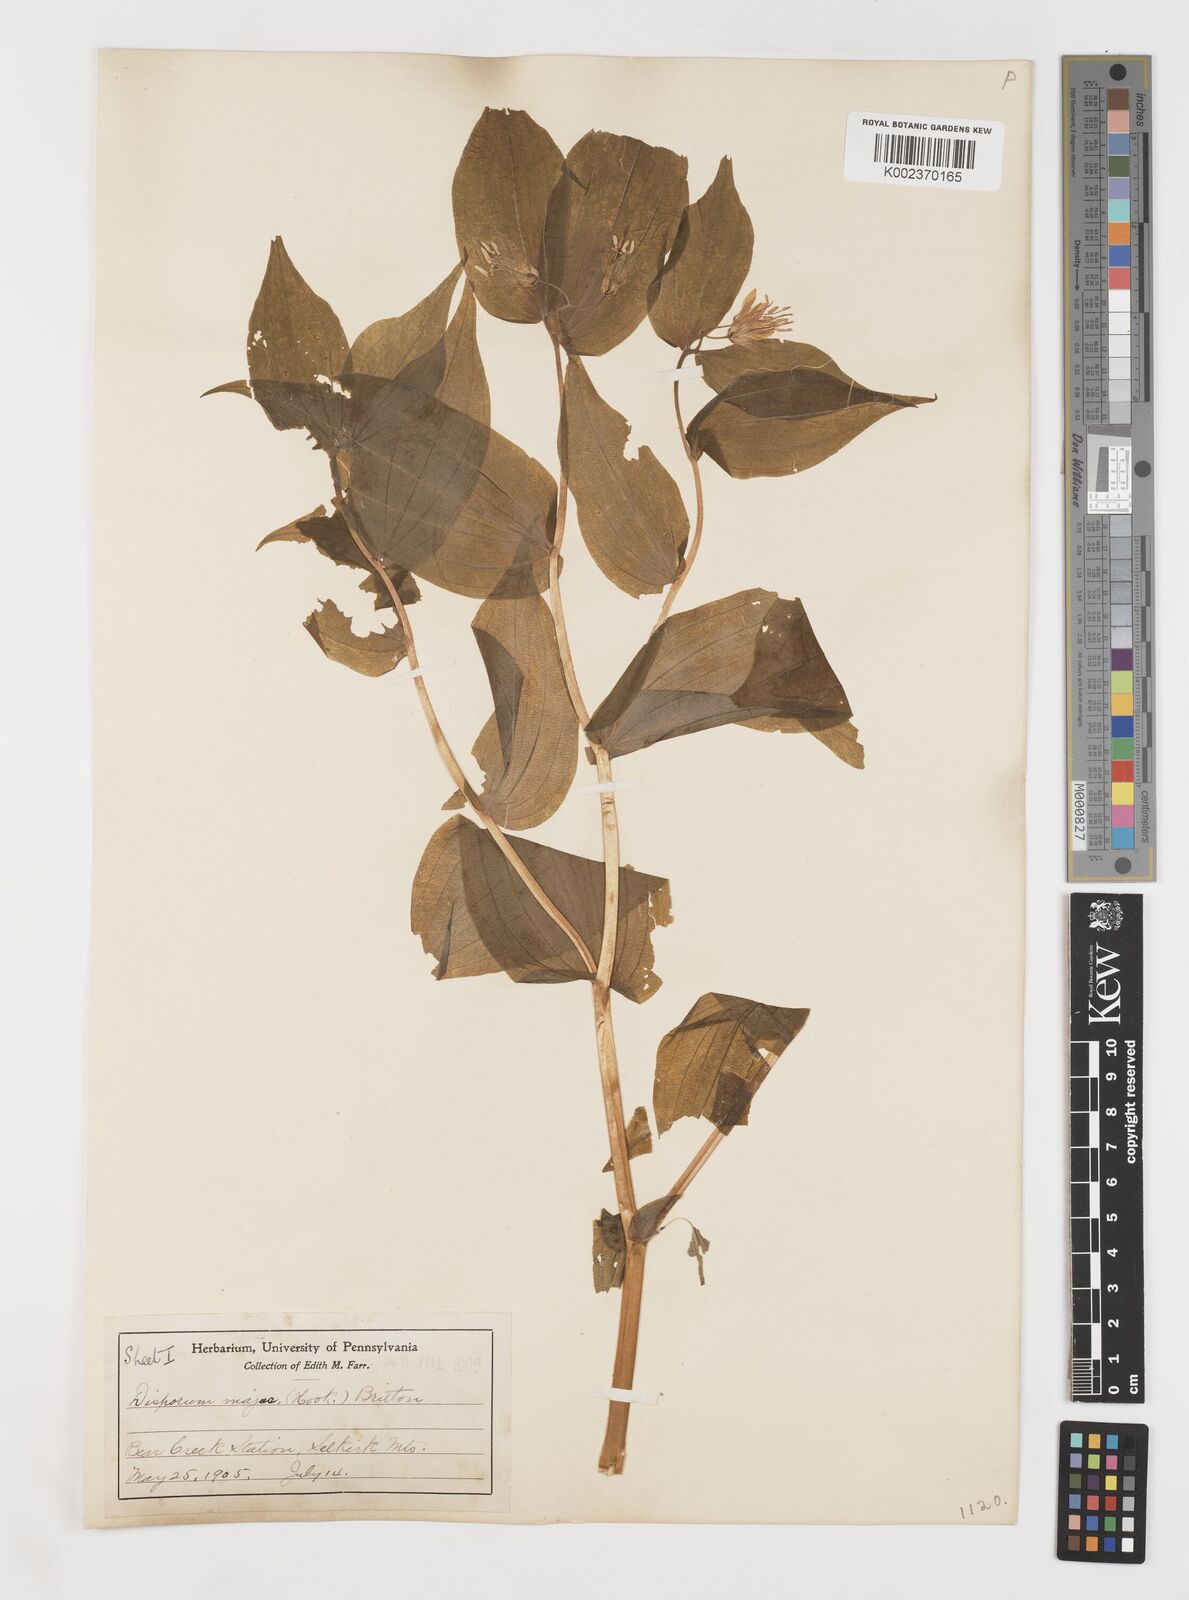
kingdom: Plantae
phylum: Tracheophyta
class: Liliopsida
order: Liliales
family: Liliaceae
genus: Prosartes
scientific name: Prosartes trachycarpa
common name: Rough-fruit fairy-bells
